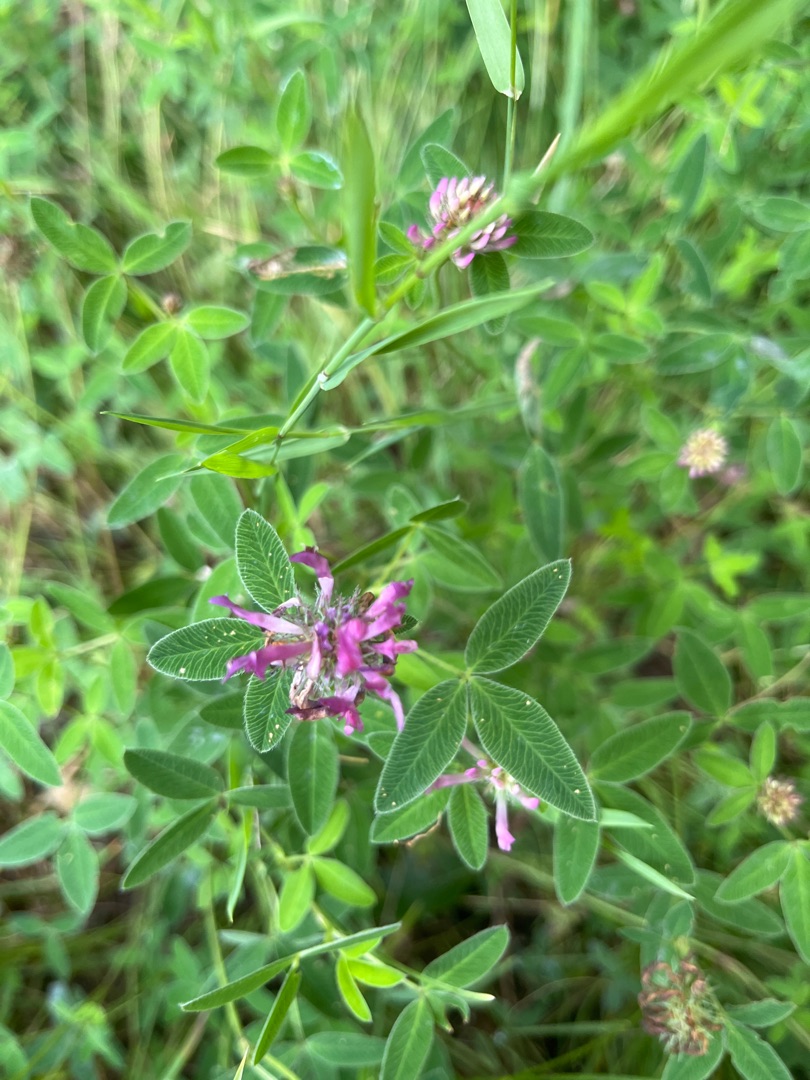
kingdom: Plantae
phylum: Tracheophyta
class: Magnoliopsida
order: Fabales
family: Fabaceae
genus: Trifolium
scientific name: Trifolium medium
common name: Bugtet kløver
